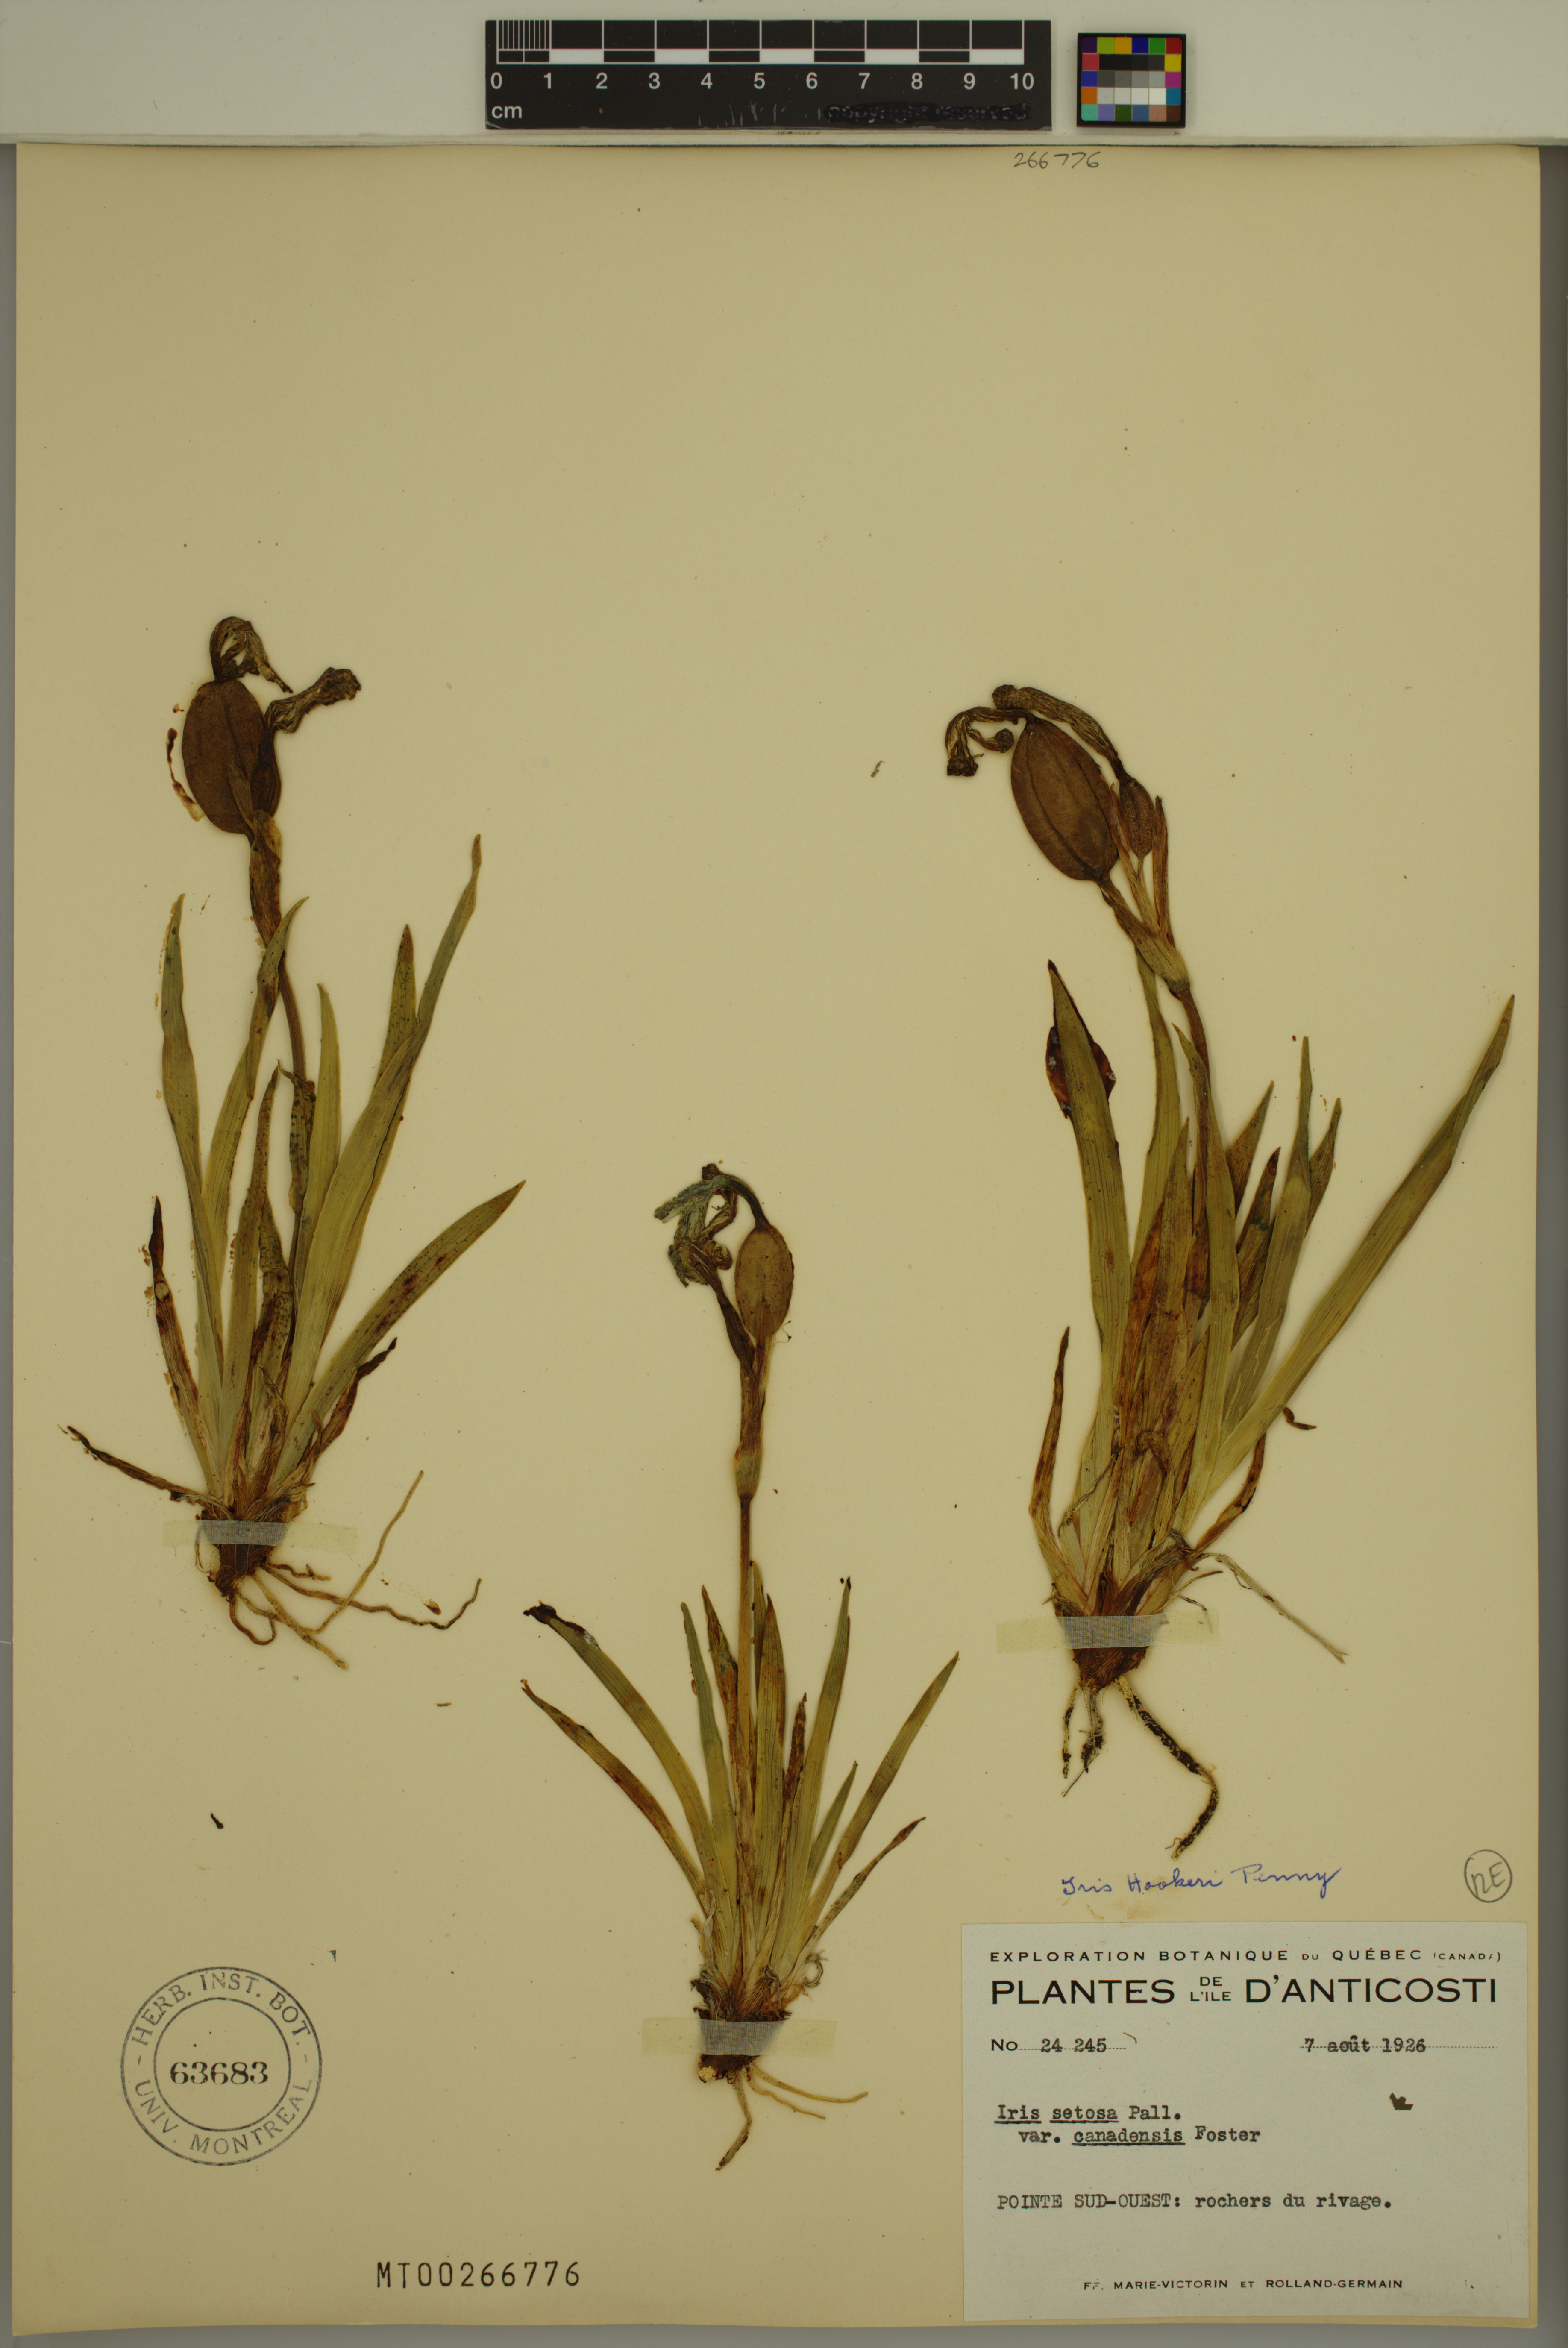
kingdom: Plantae
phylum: Tracheophyta
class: Liliopsida
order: Asparagales
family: Iridaceae
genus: Iris
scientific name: Iris hookeri
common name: Canada beach-head iris
